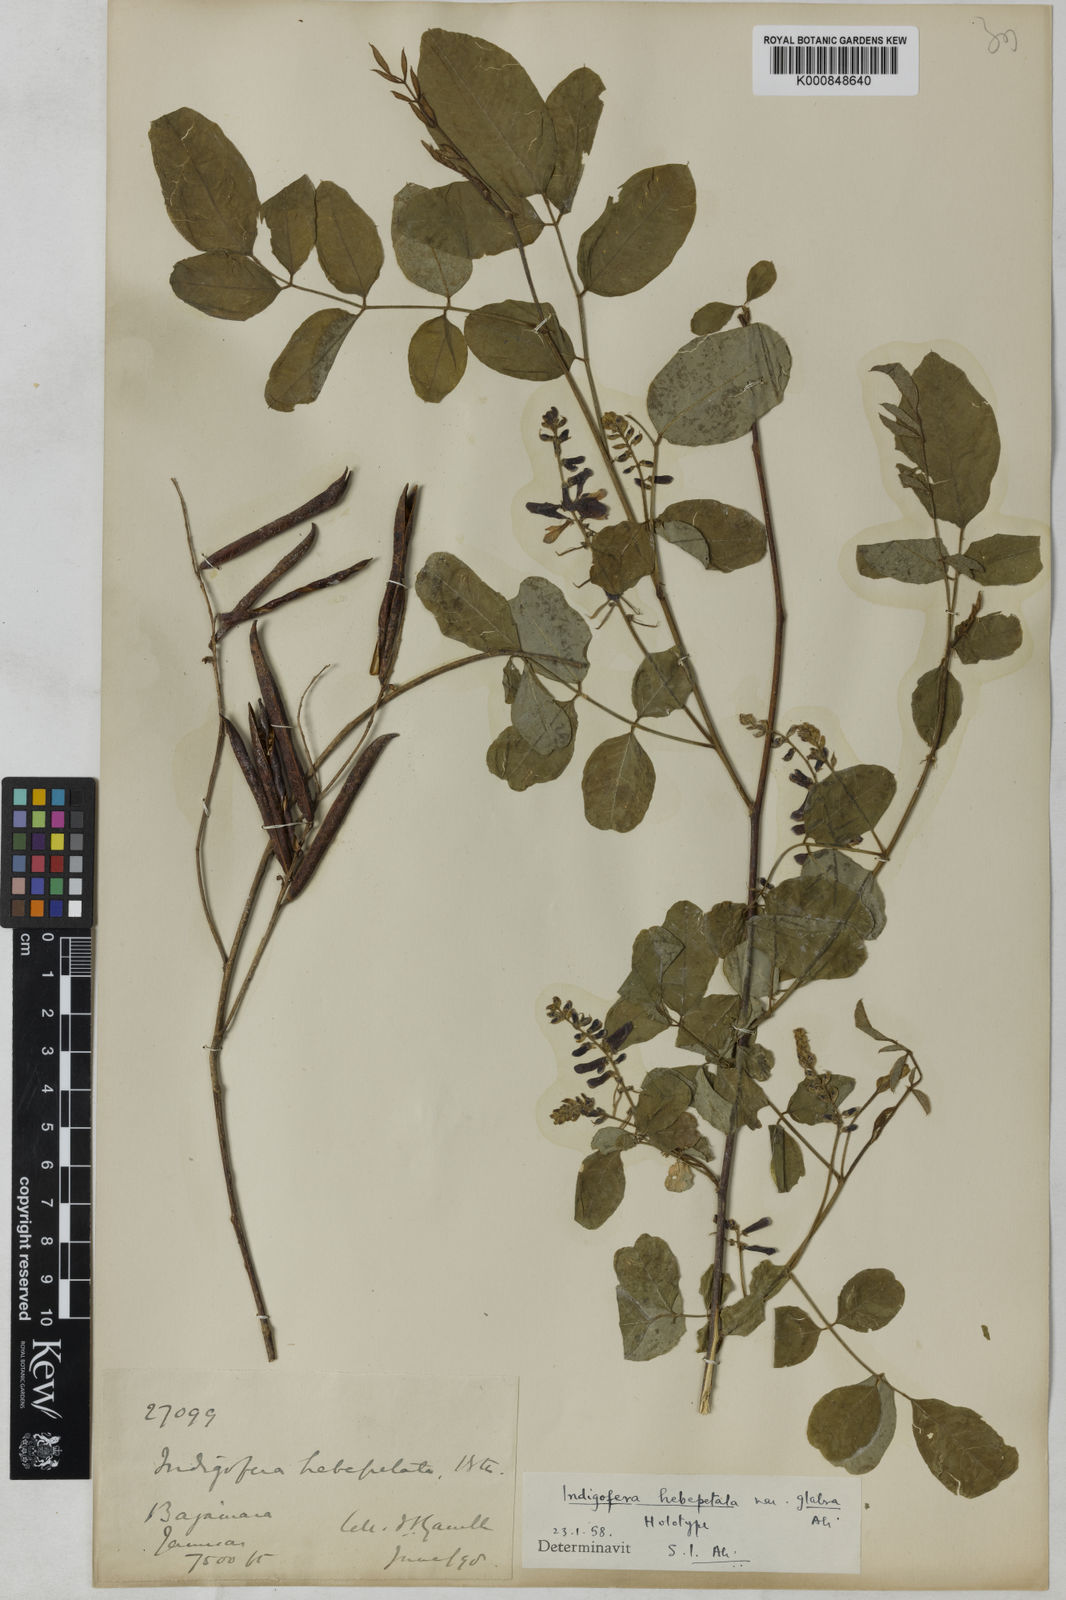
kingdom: Plantae
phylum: Tracheophyta
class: Magnoliopsida
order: Fabales
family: Fabaceae
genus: Indigofera
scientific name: Indigofera hebepetala
